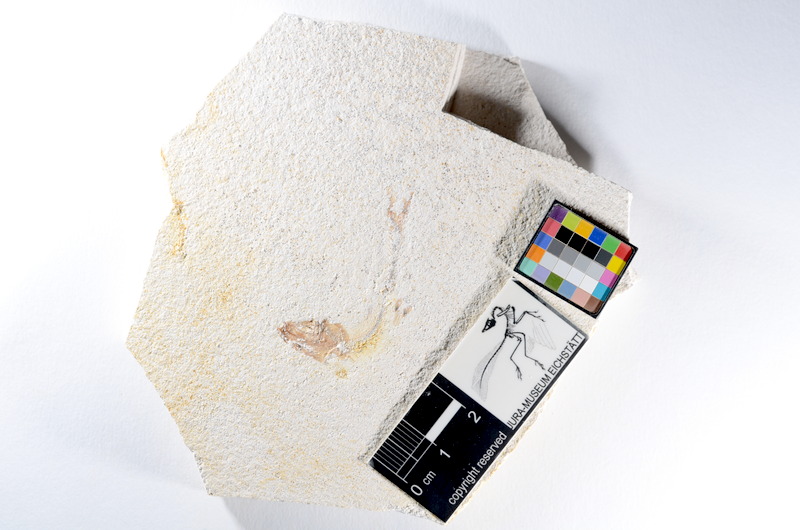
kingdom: Animalia
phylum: Chordata
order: Salmoniformes
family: Orthogonikleithridae
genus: Orthogonikleithrus
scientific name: Orthogonikleithrus hoelli
